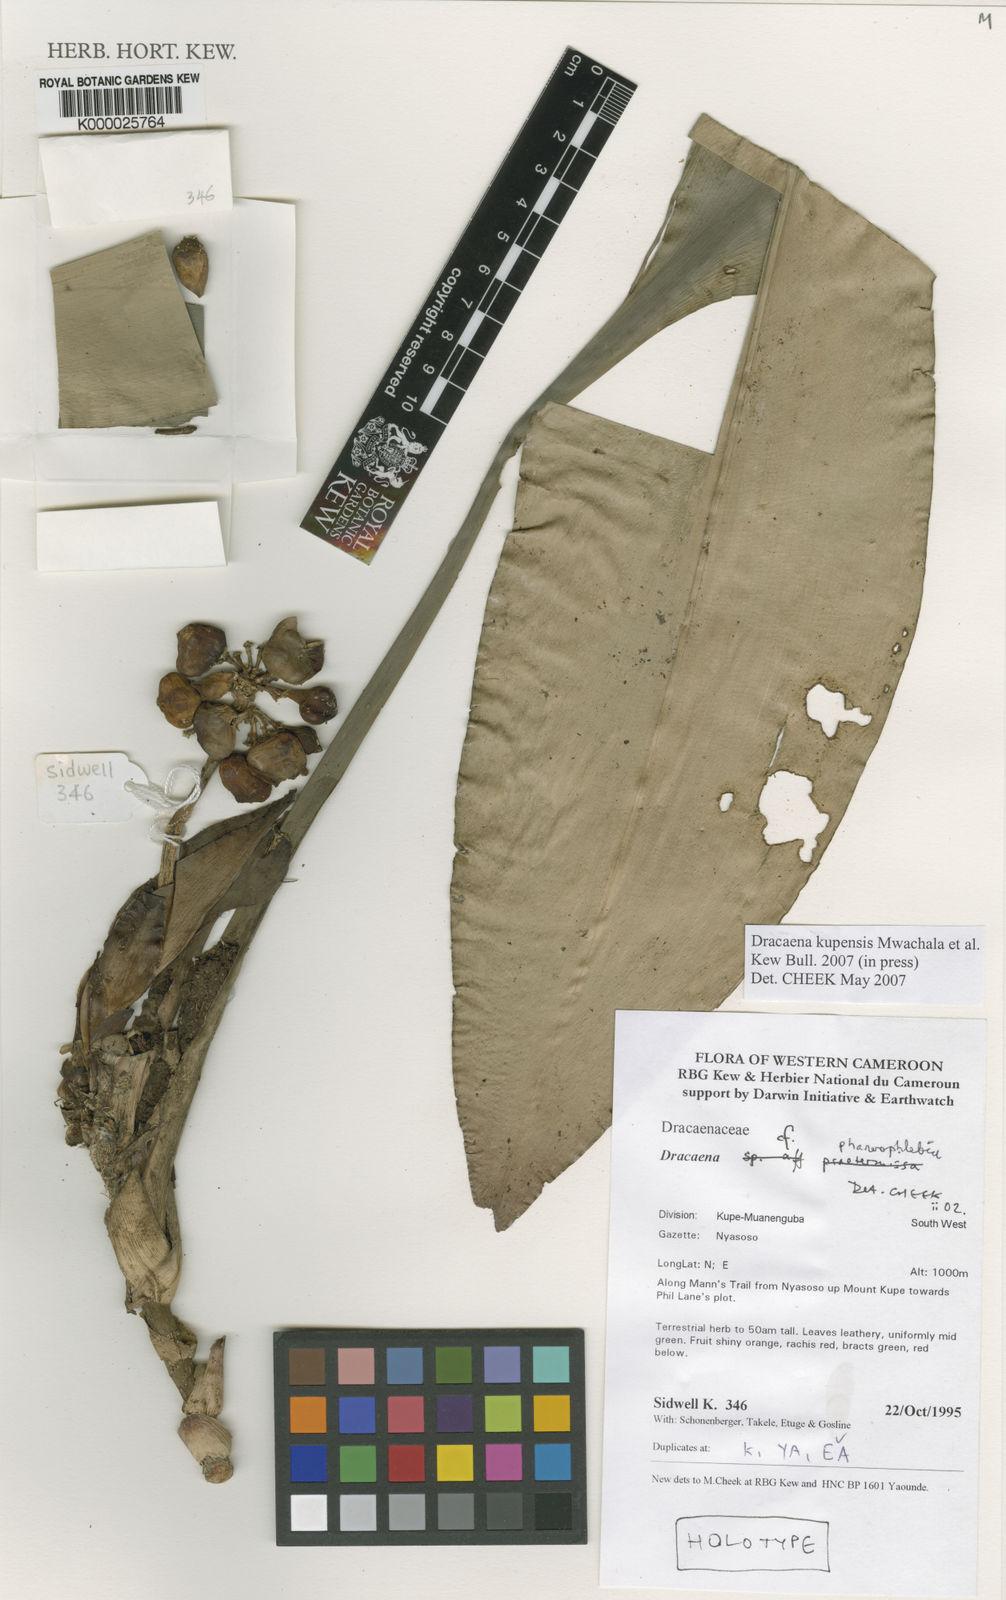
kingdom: Plantae
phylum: Tracheophyta
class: Liliopsida
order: Asparagales
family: Asparagaceae
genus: Dracaena
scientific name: Dracaena kupensis
